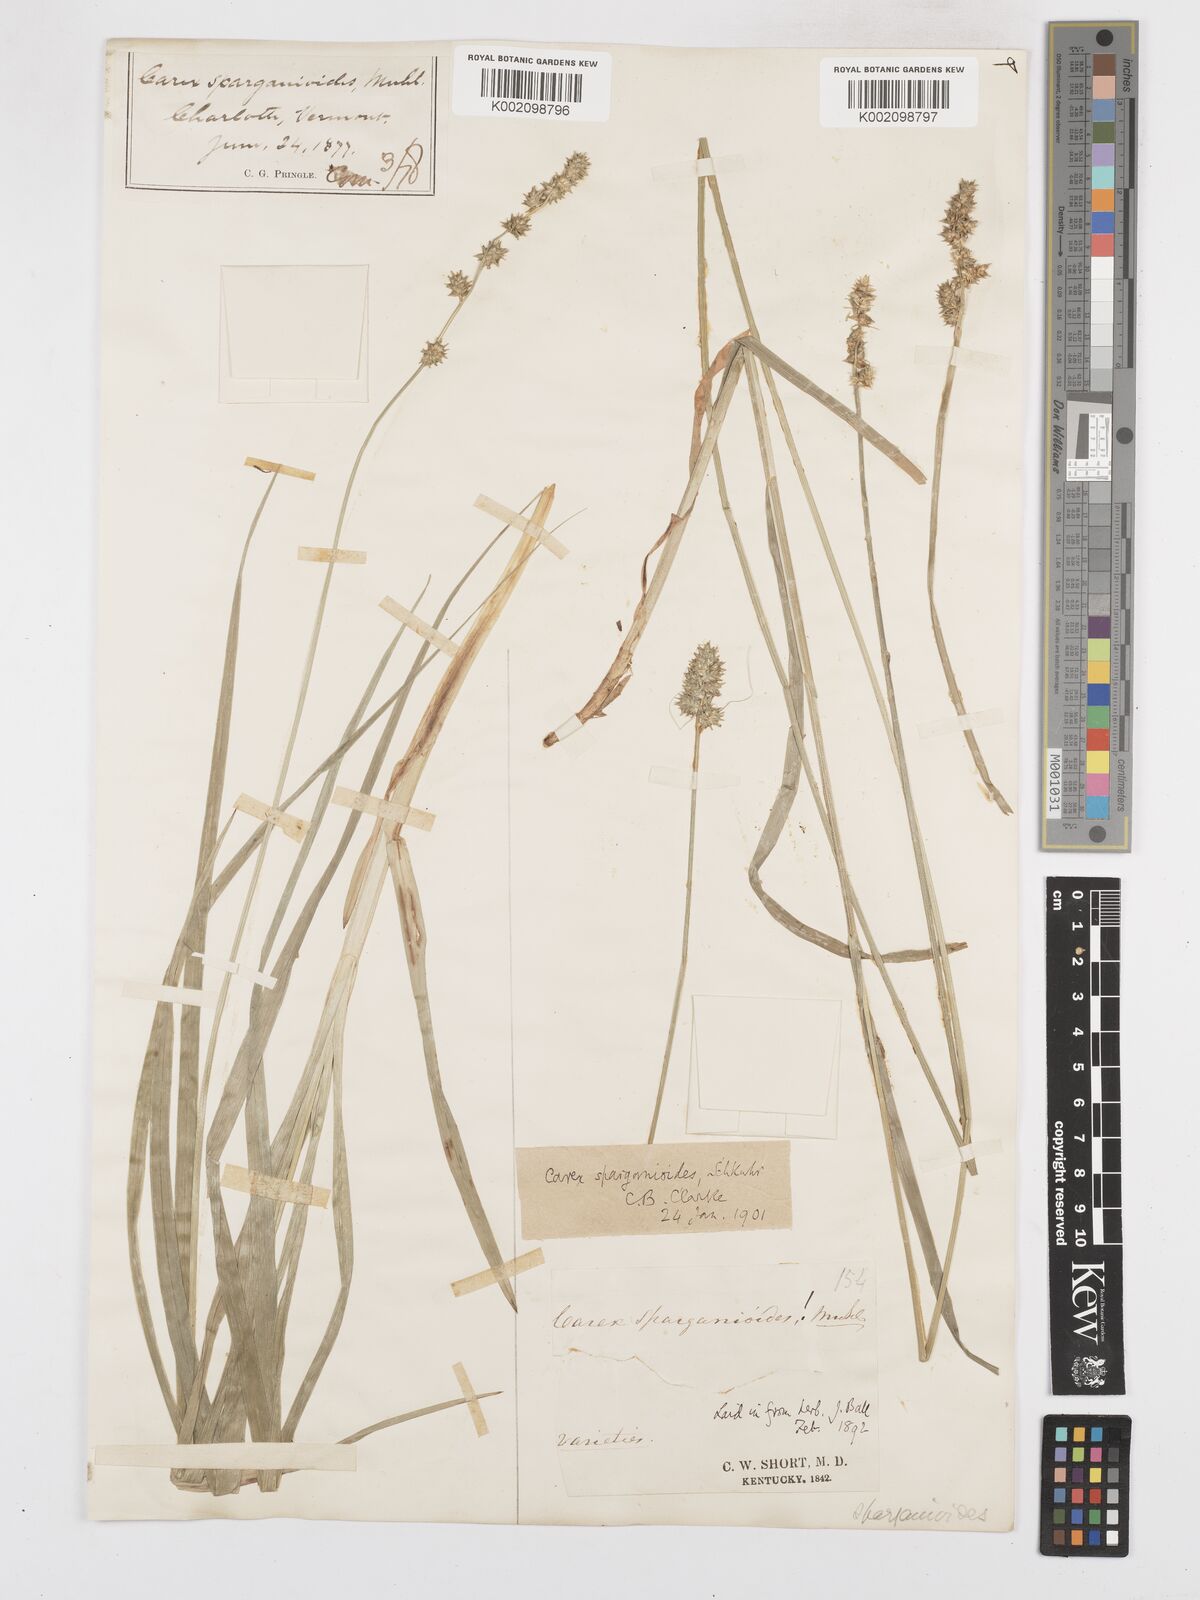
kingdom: Plantae
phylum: Tracheophyta
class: Liliopsida
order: Poales
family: Cyperaceae
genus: Carex
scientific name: Carex sparganioides
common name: Burreed sedge
